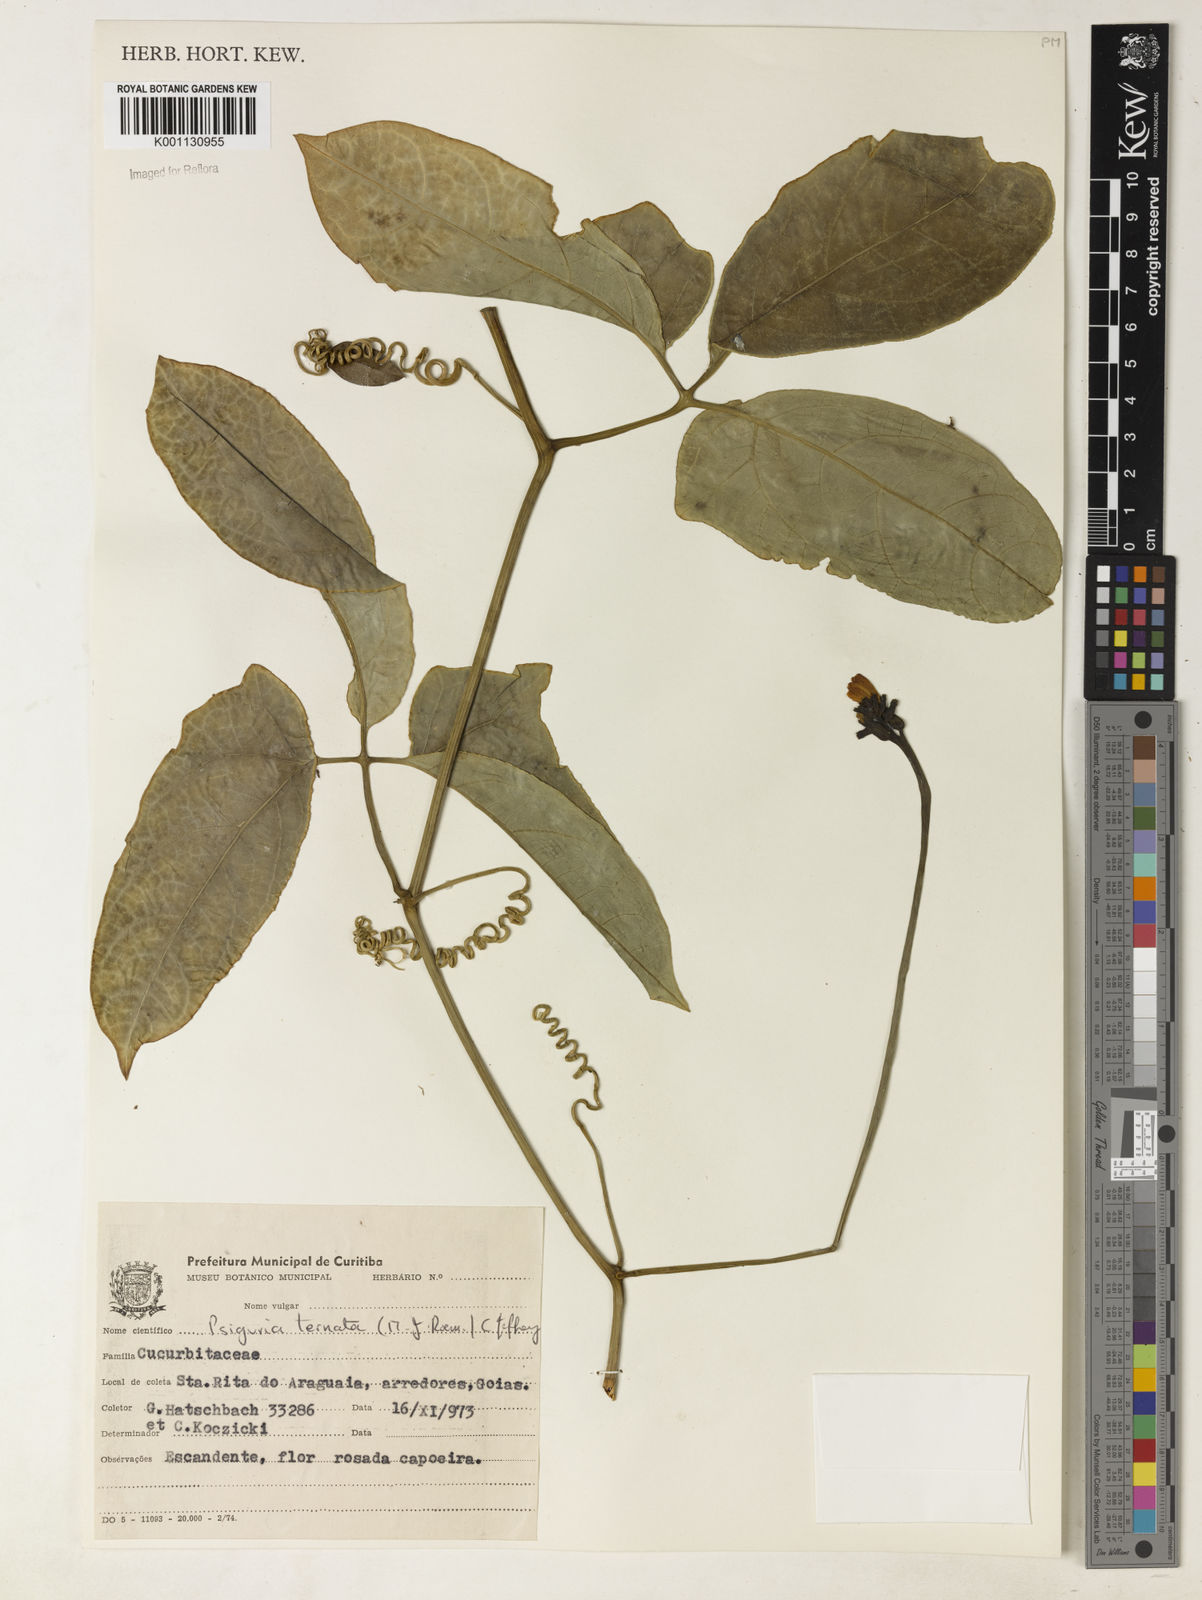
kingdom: Plantae
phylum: Tracheophyta
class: Magnoliopsida
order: Cucurbitales
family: Cucurbitaceae
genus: Psiguria
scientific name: Psiguria ternata
